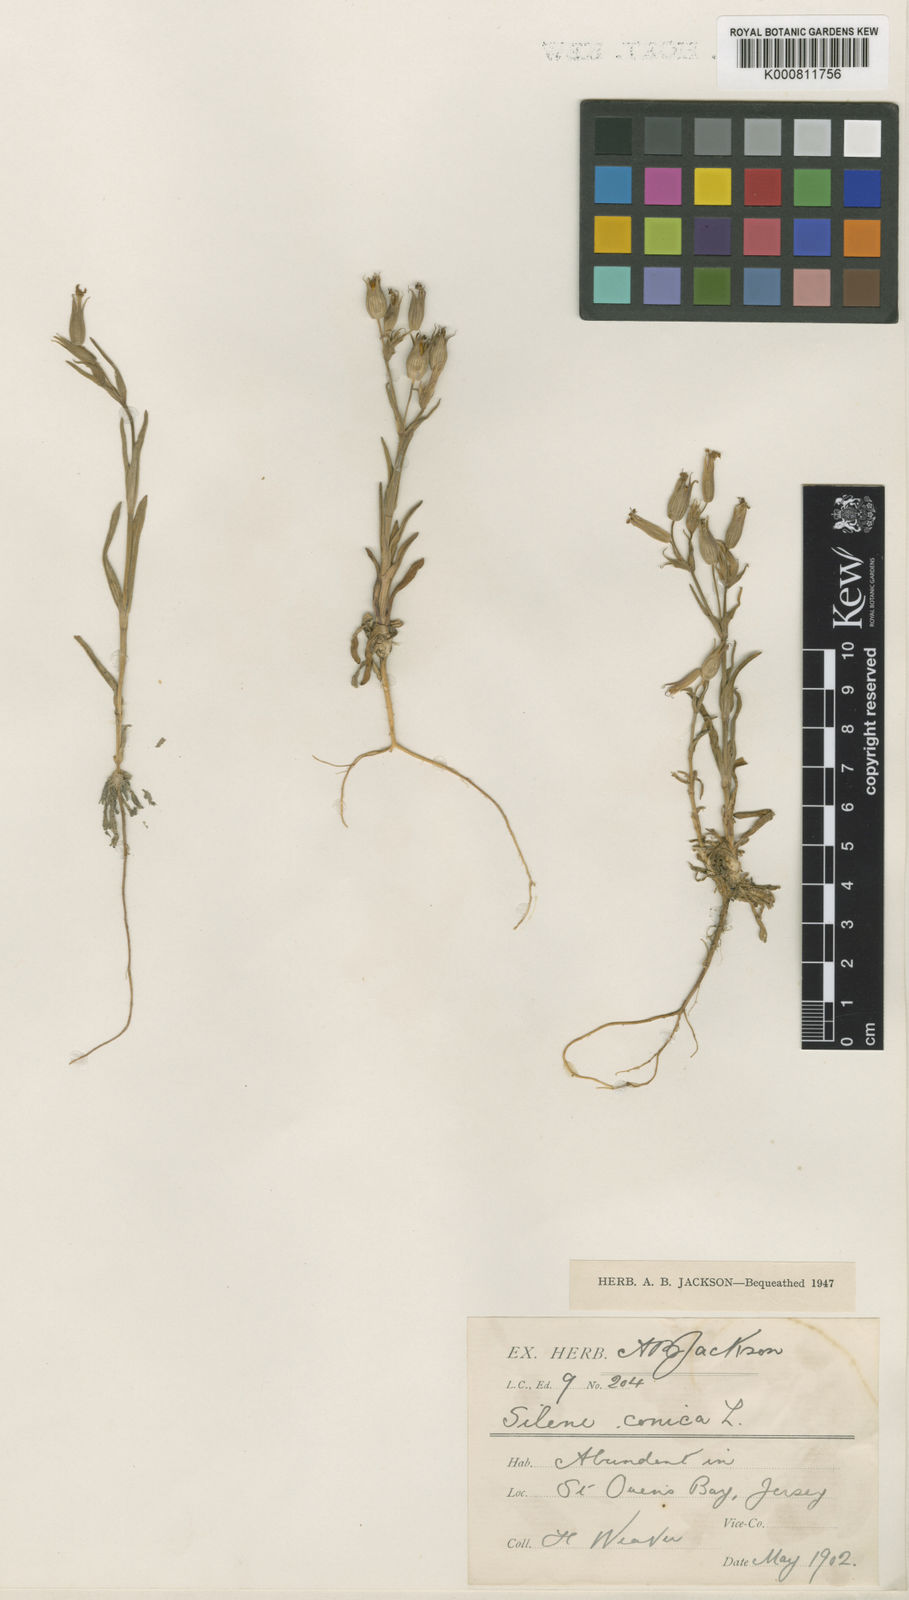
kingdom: Plantae
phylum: Tracheophyta
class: Magnoliopsida
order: Caryophyllales
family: Caryophyllaceae
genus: Silene
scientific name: Silene conica
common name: Sand catchfly
